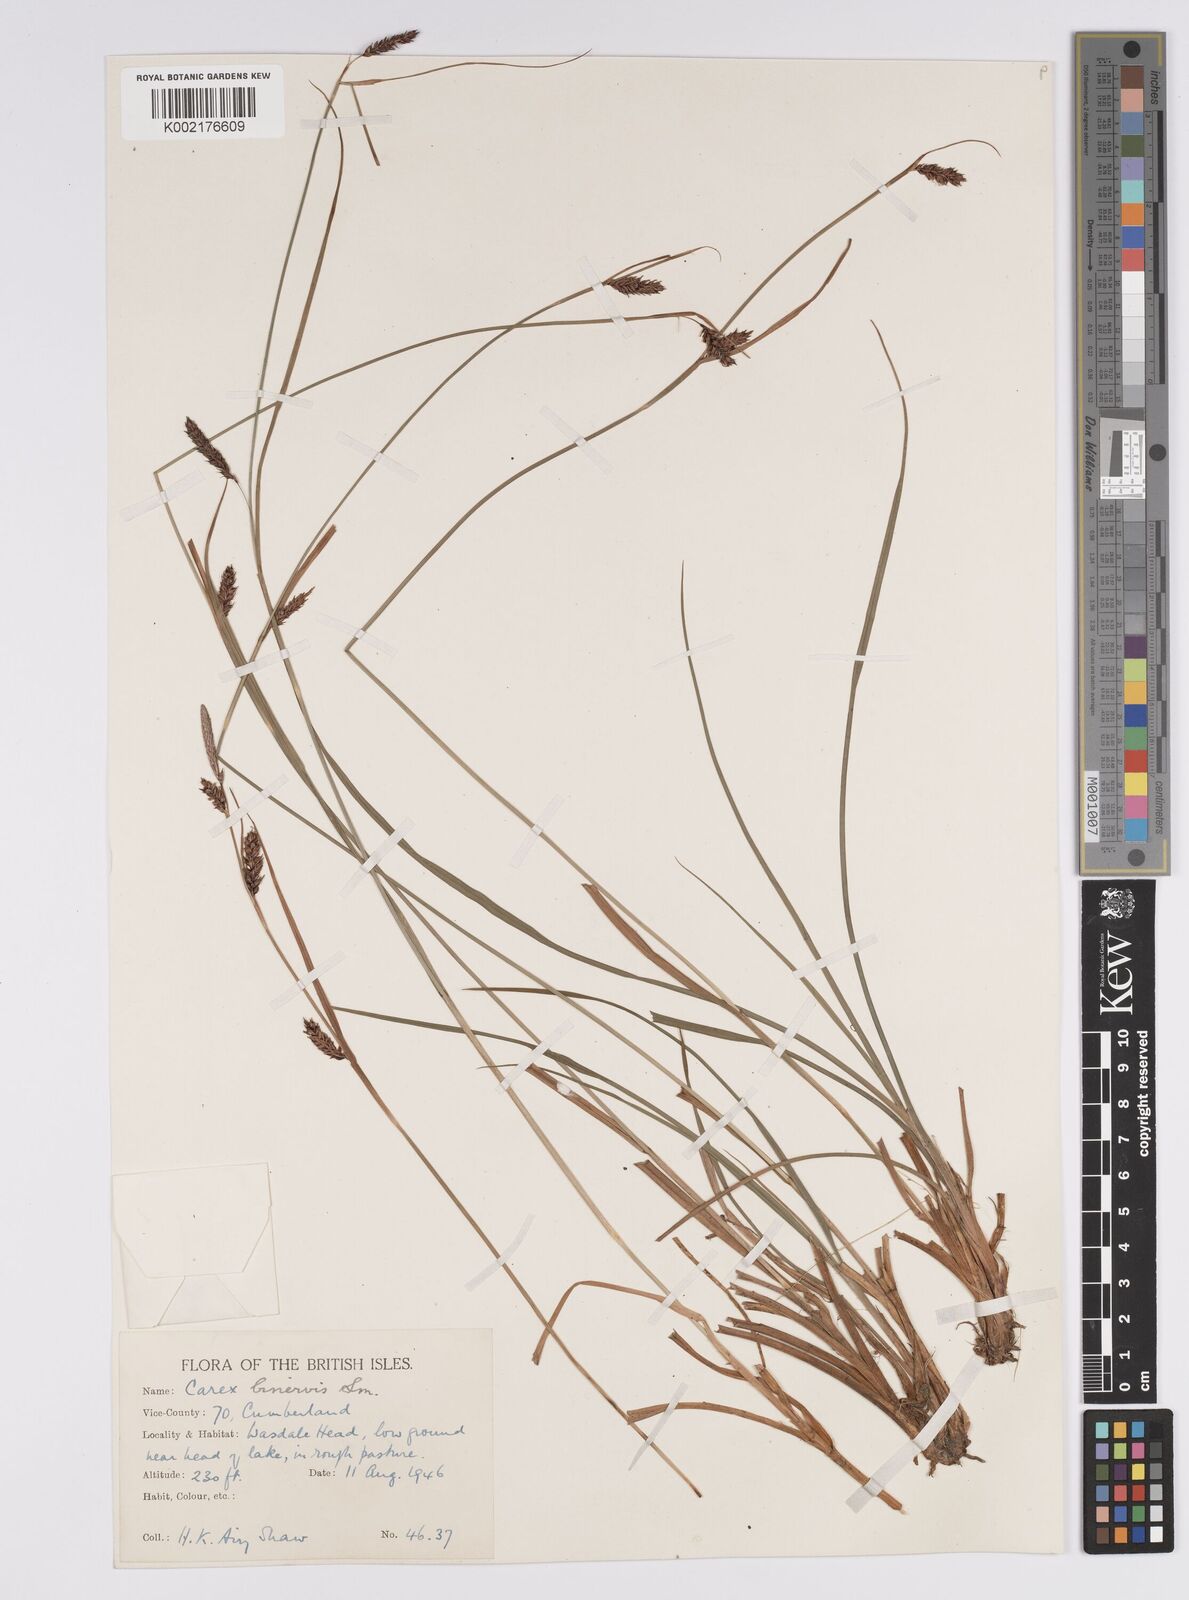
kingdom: Plantae
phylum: Tracheophyta
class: Liliopsida
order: Poales
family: Cyperaceae
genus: Carex
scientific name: Carex binervis
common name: Green-ribbed sedge
